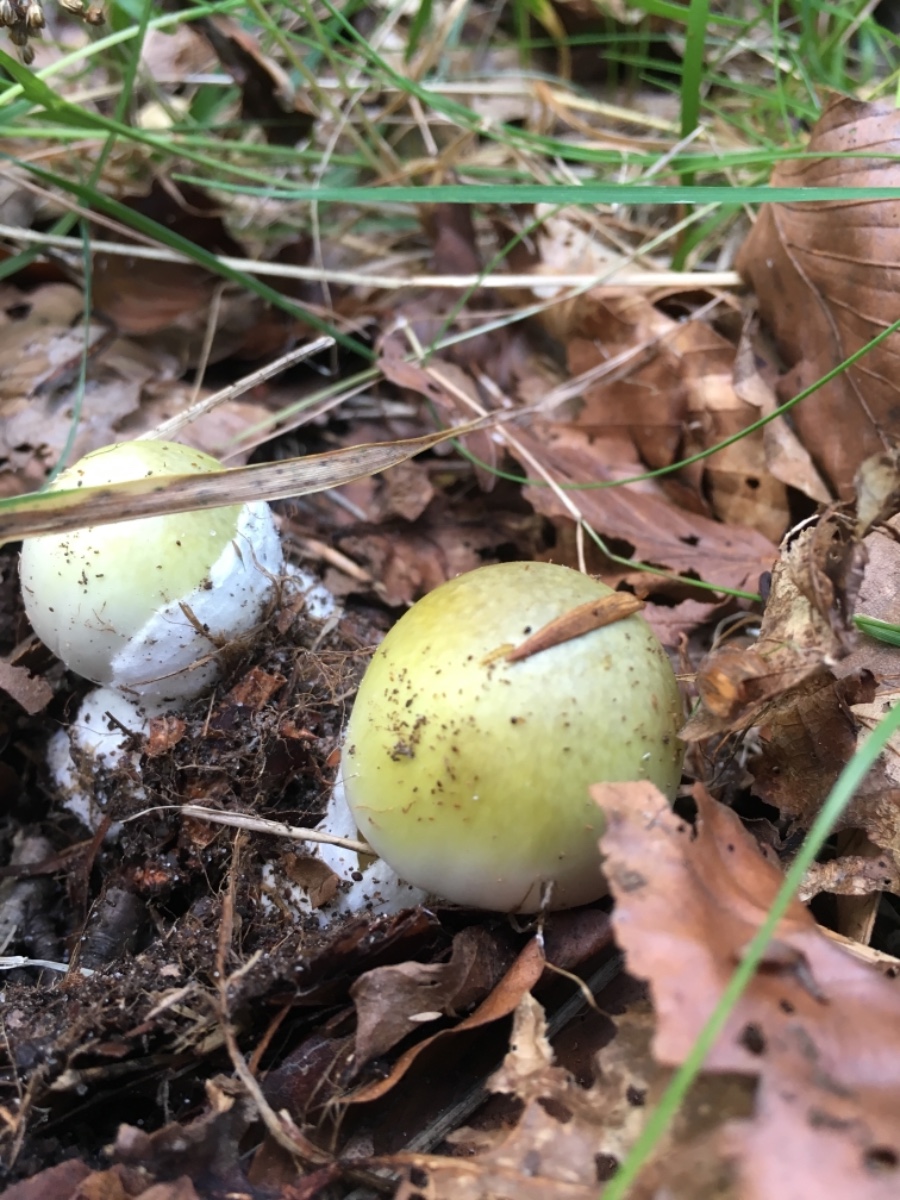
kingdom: Fungi
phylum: Basidiomycota
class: Agaricomycetes
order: Agaricales
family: Amanitaceae
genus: Amanita
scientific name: Amanita phalloides
